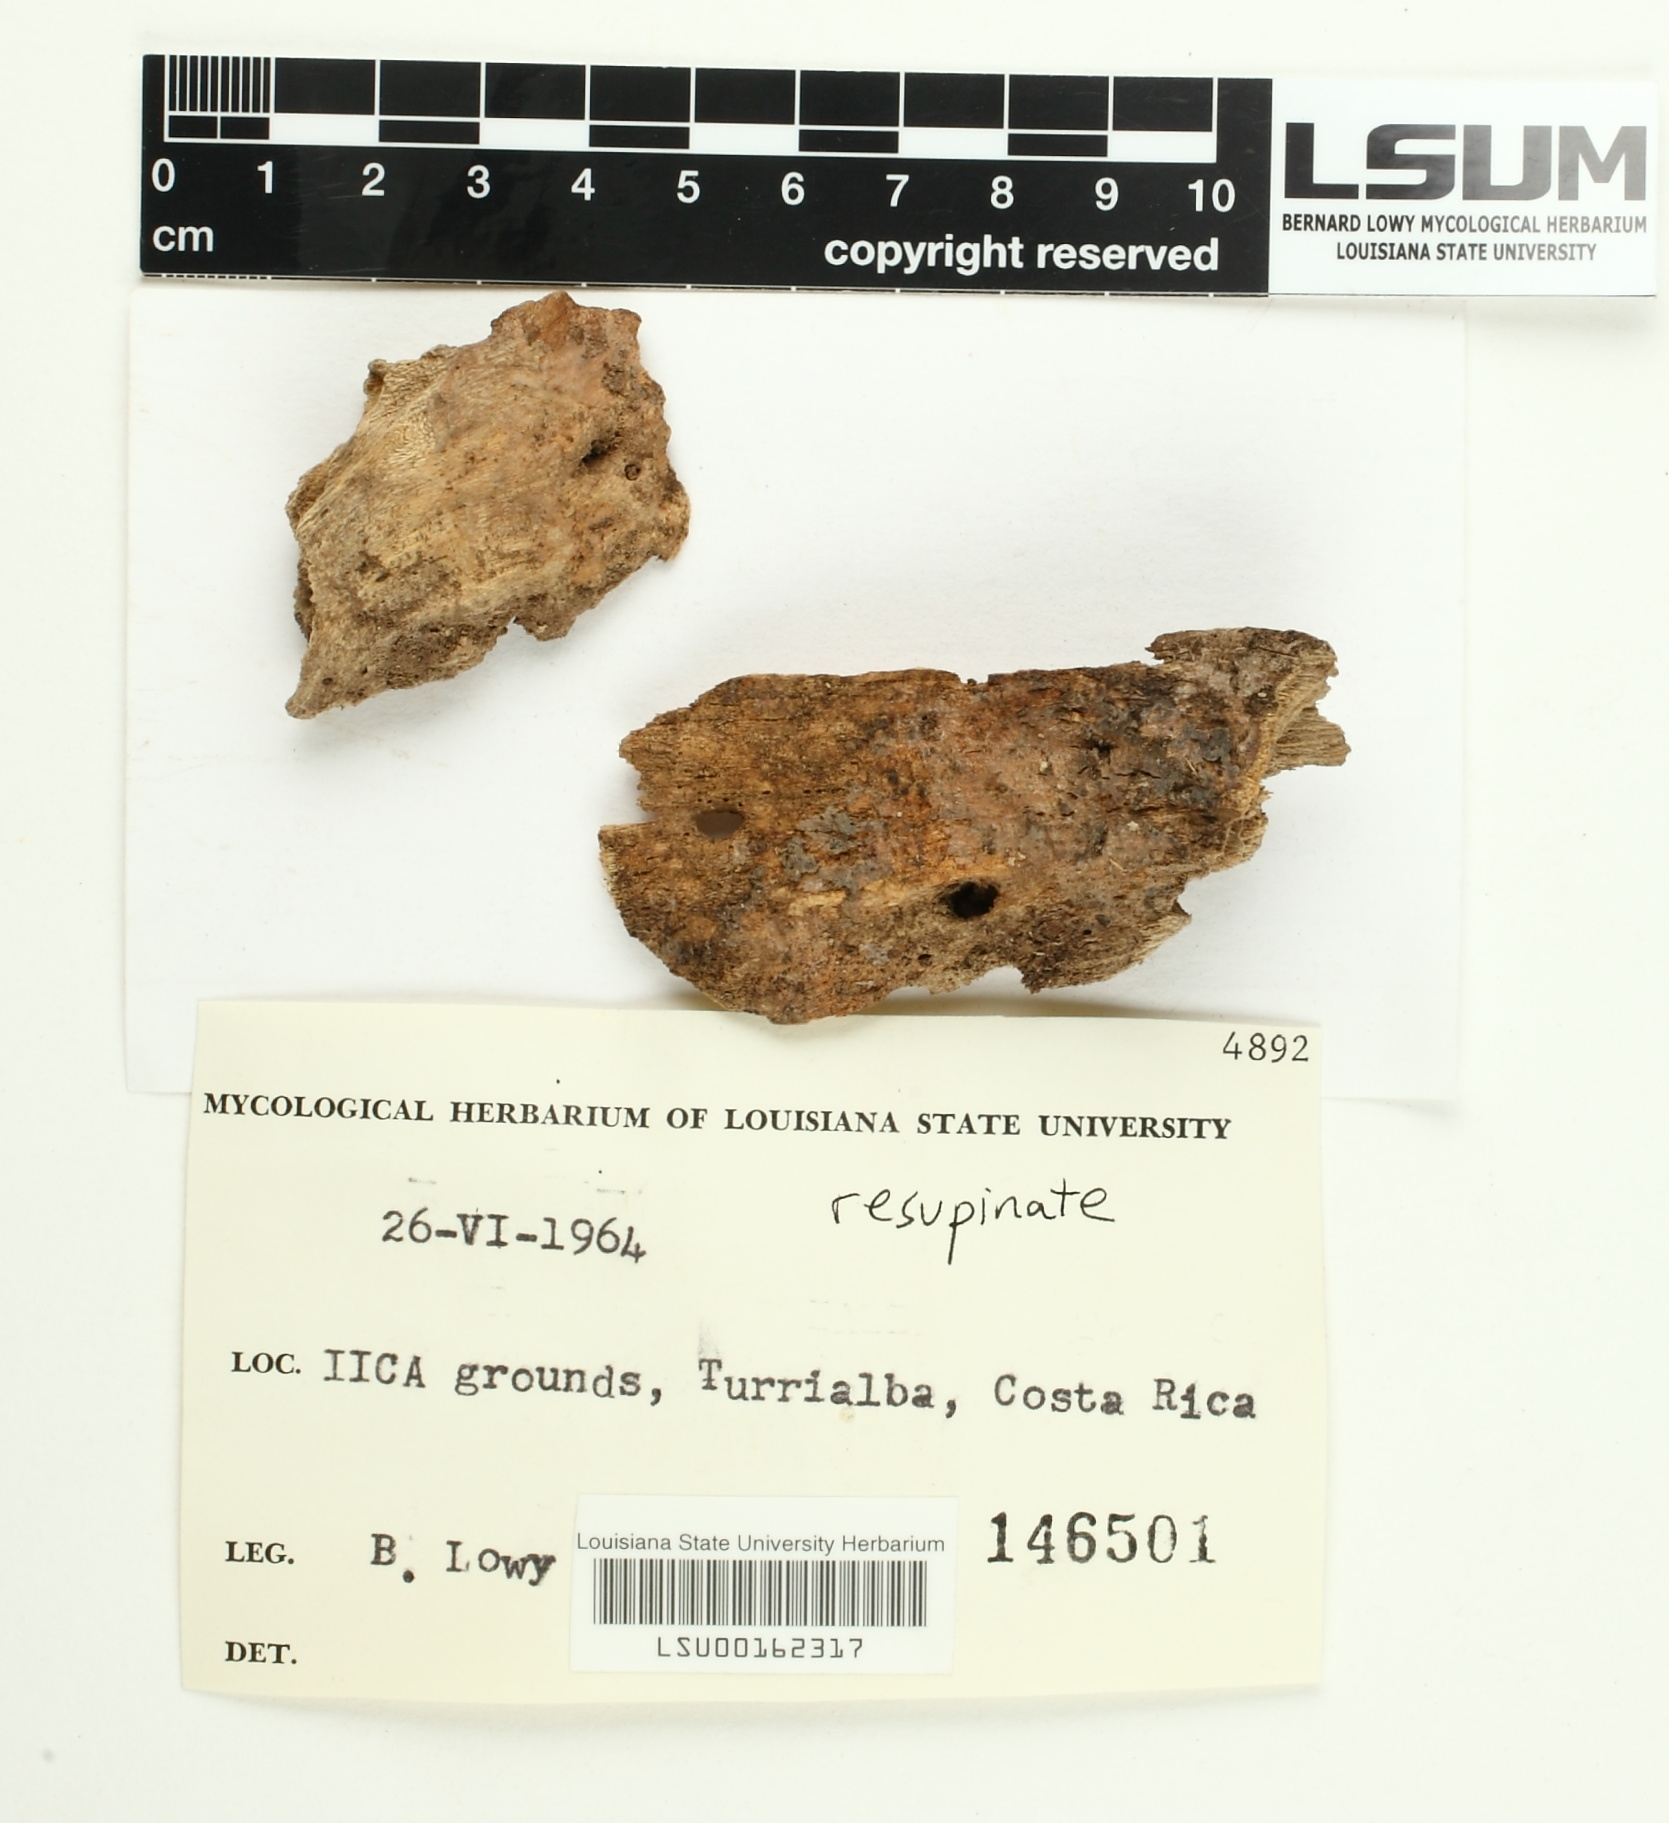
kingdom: Fungi
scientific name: Fungi
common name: Fungi
